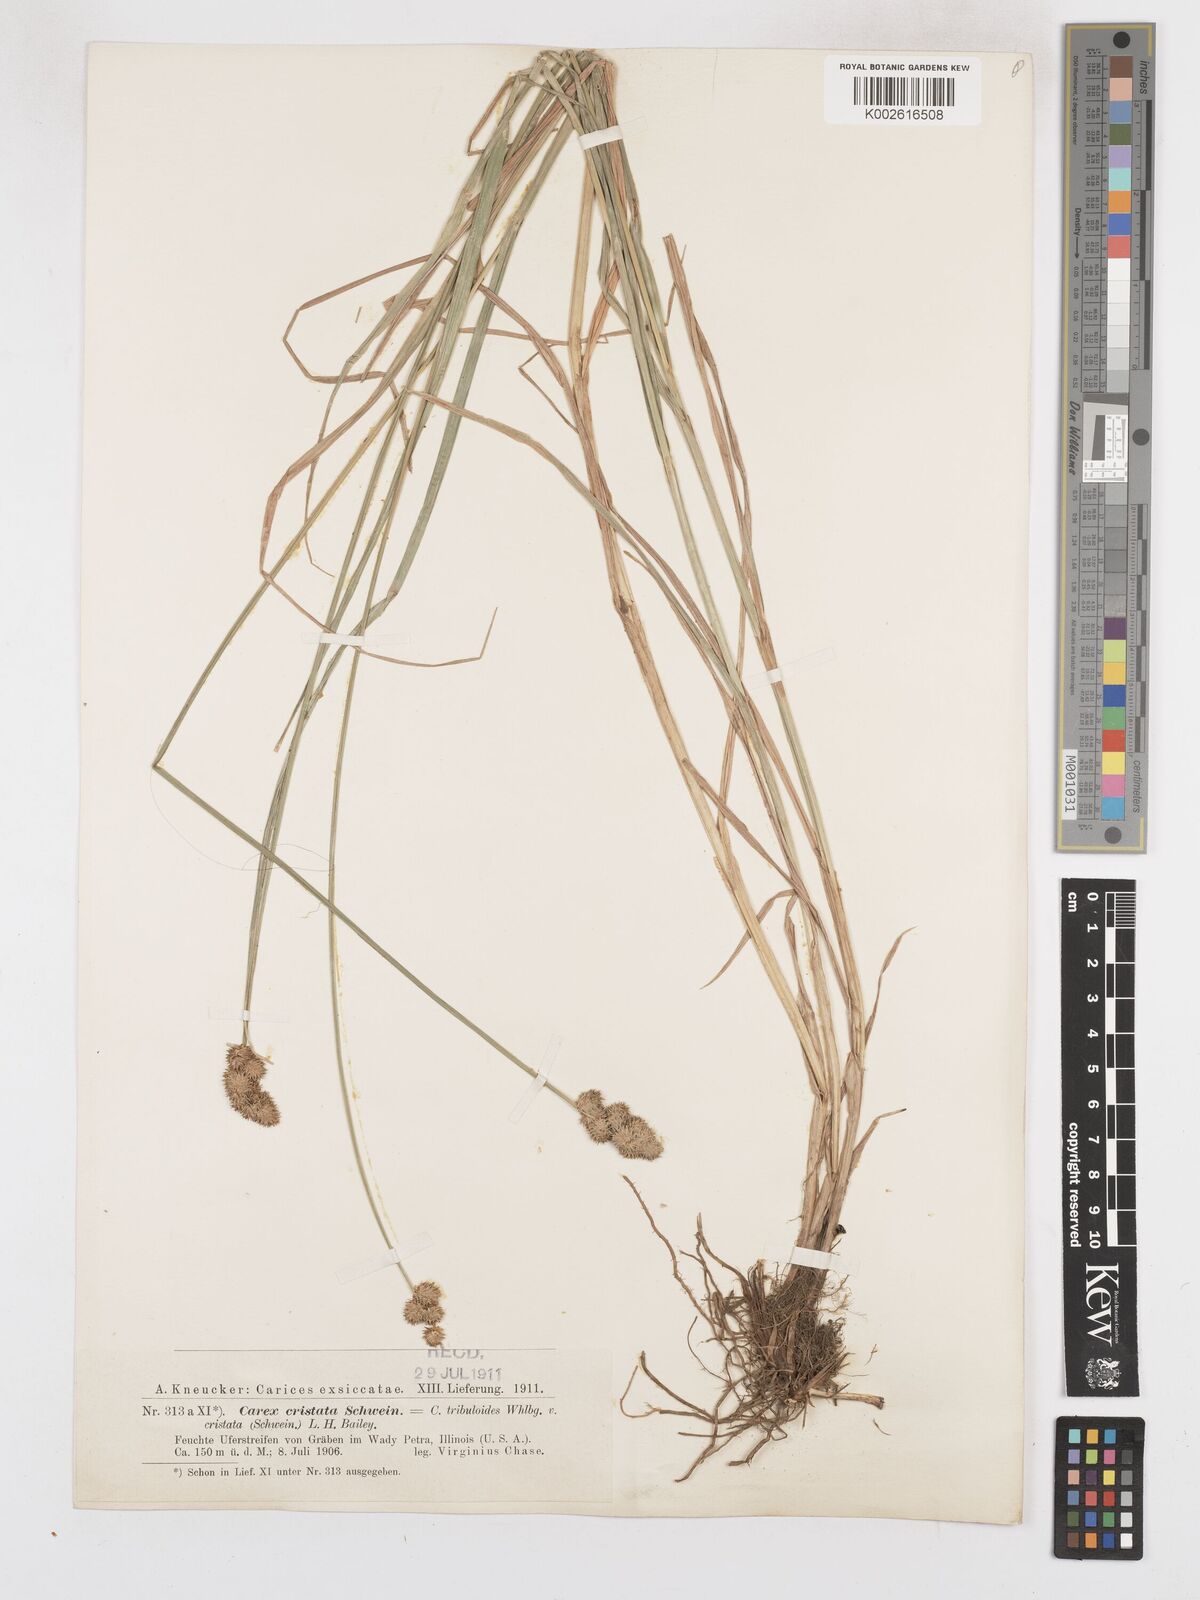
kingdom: Plantae
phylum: Tracheophyta
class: Liliopsida
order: Poales
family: Cyperaceae
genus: Carex
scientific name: Carex cristatella
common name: Crested oval sedge
